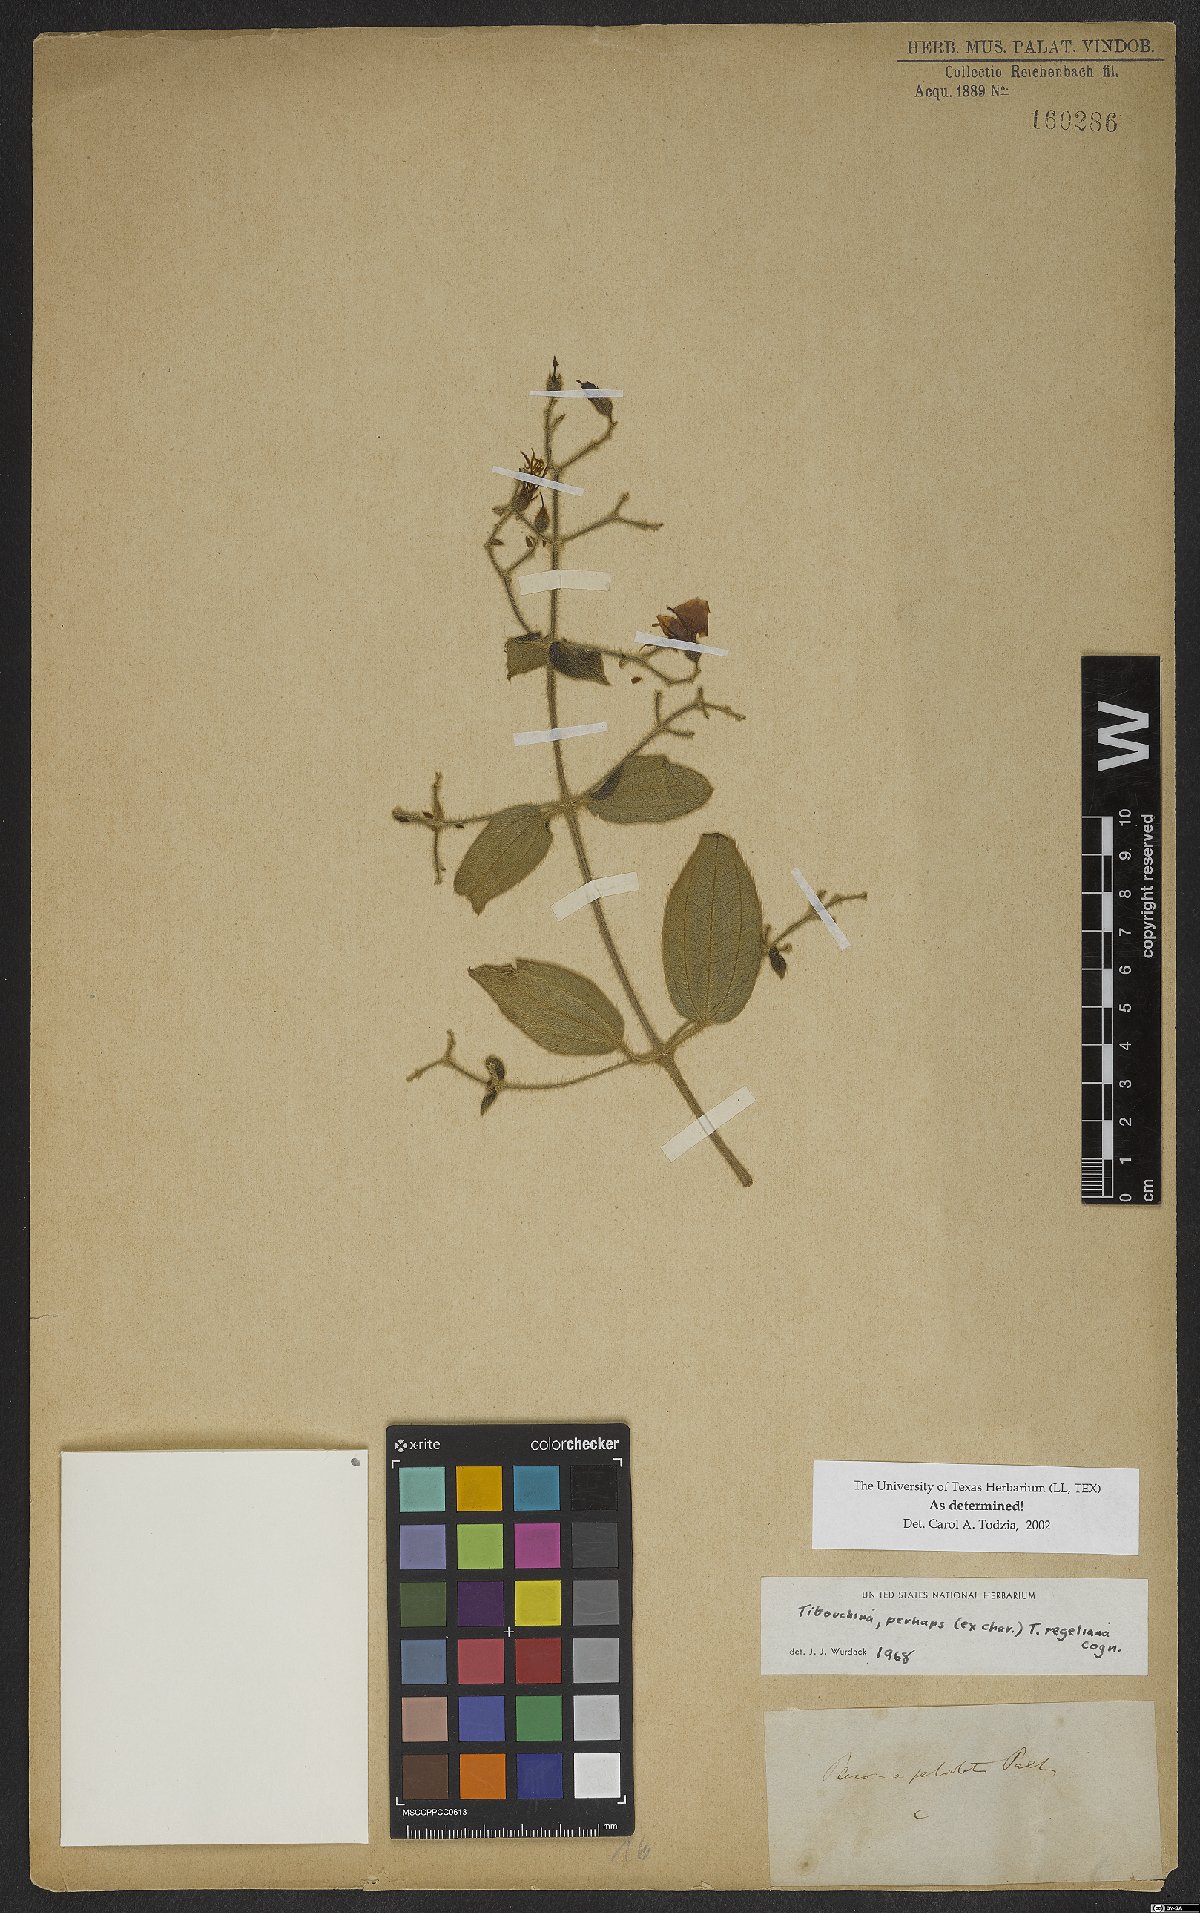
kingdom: Plantae
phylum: Tracheophyta
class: Magnoliopsida
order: Myrtales
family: Melastomataceae
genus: Pleroma
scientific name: Pleroma regelianum
